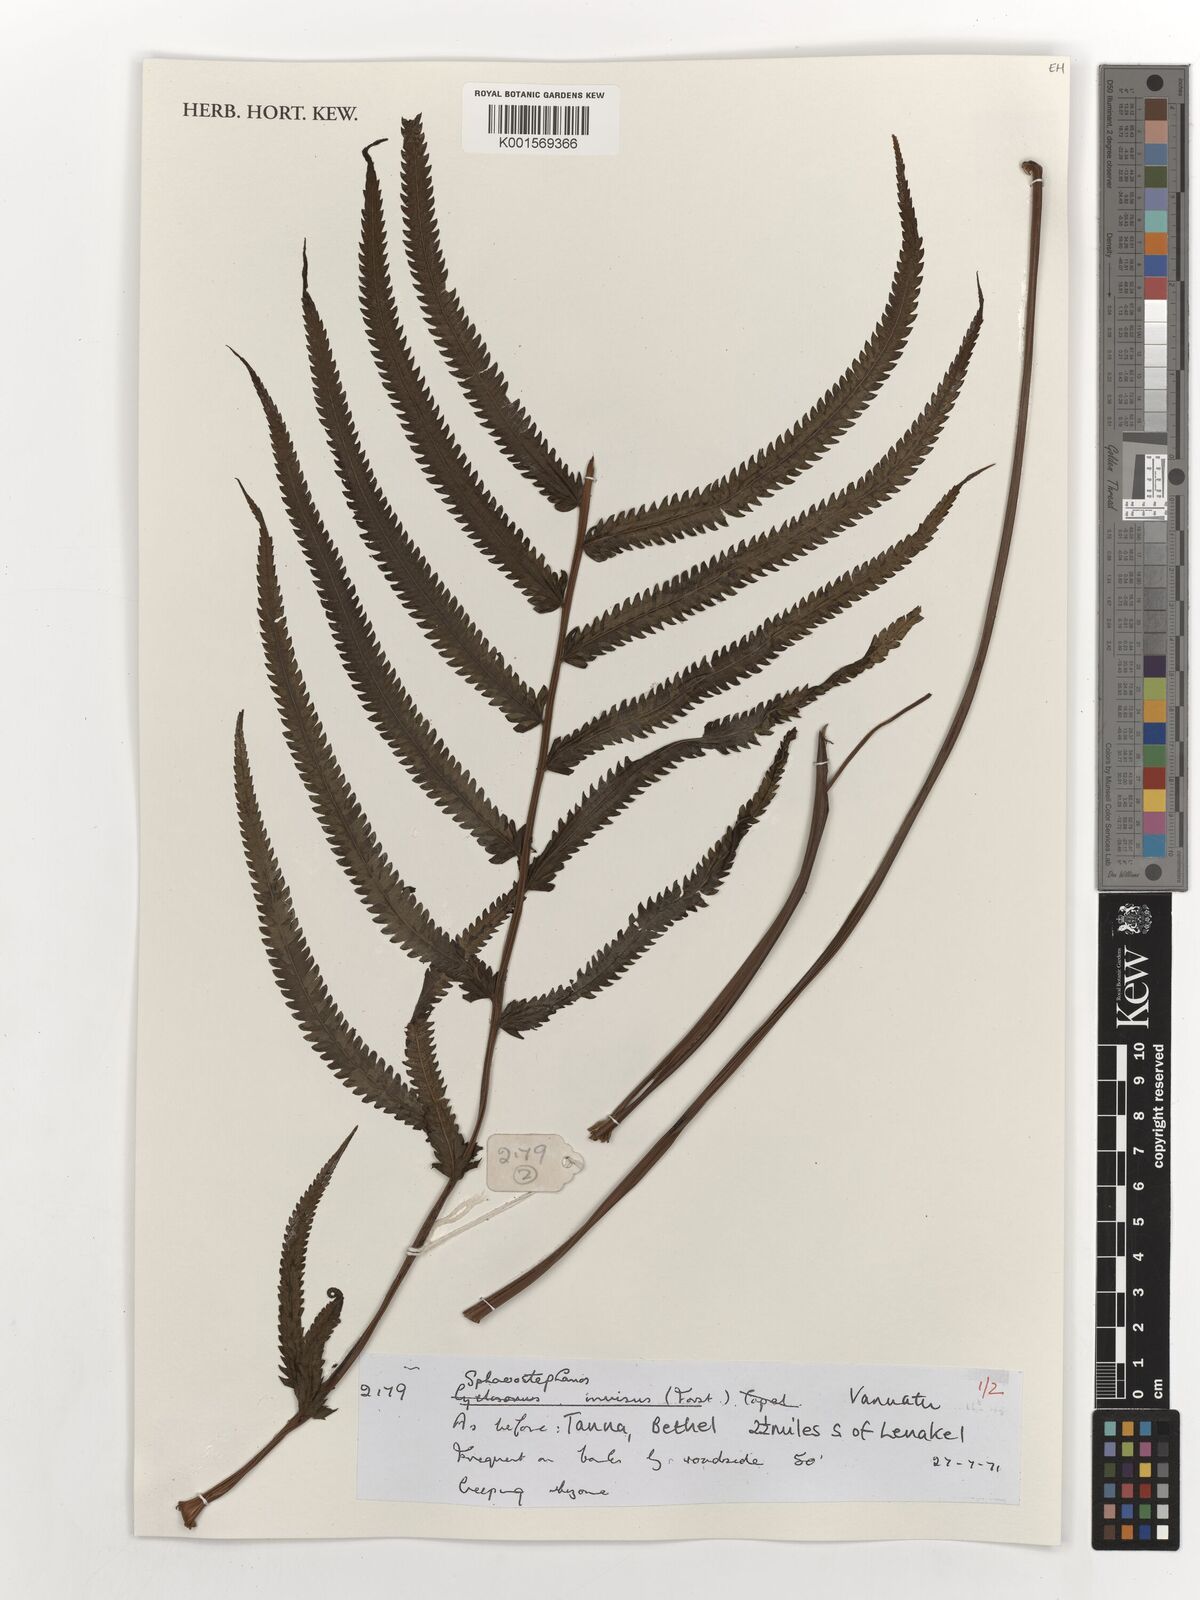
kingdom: Plantae
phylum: Tracheophyta
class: Polypodiopsida
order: Polypodiales
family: Thelypteridaceae
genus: Strophocaulon
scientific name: Strophocaulon invisum
